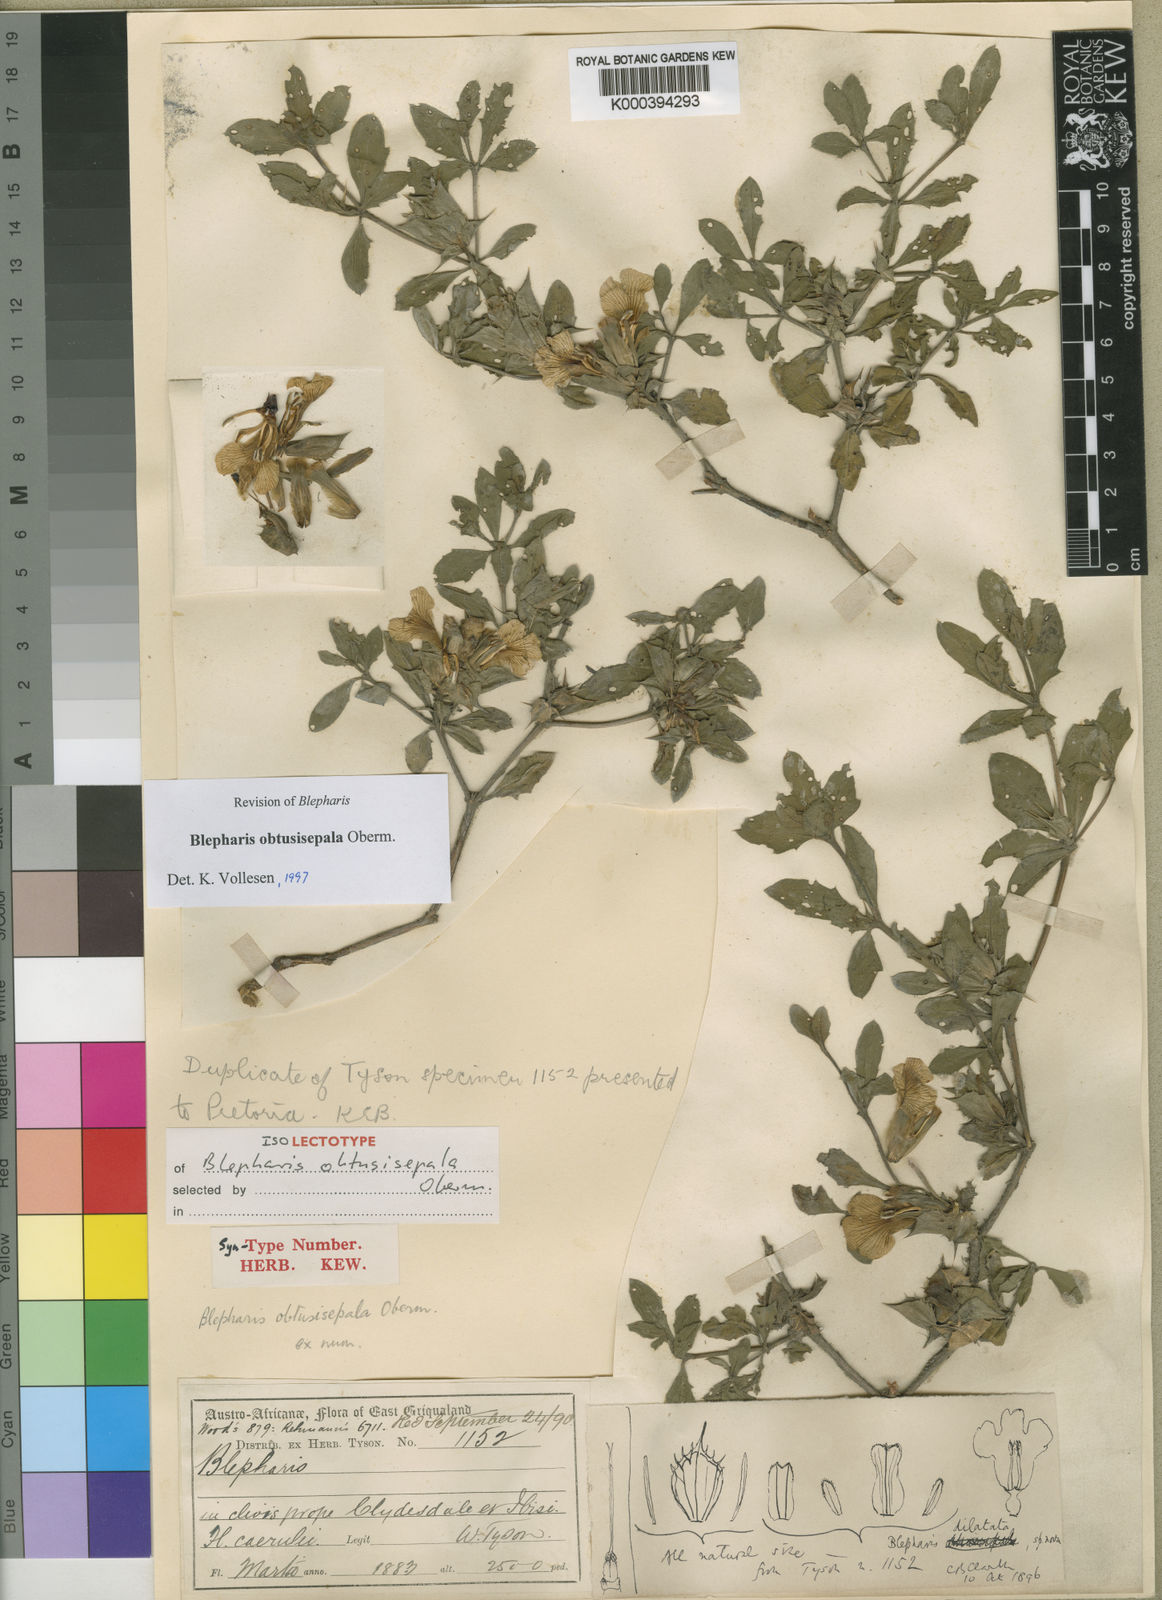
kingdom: Plantae
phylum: Tracheophyta
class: Magnoliopsida
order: Lamiales
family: Acanthaceae
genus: Blepharis
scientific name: Blepharis obtusisepala
